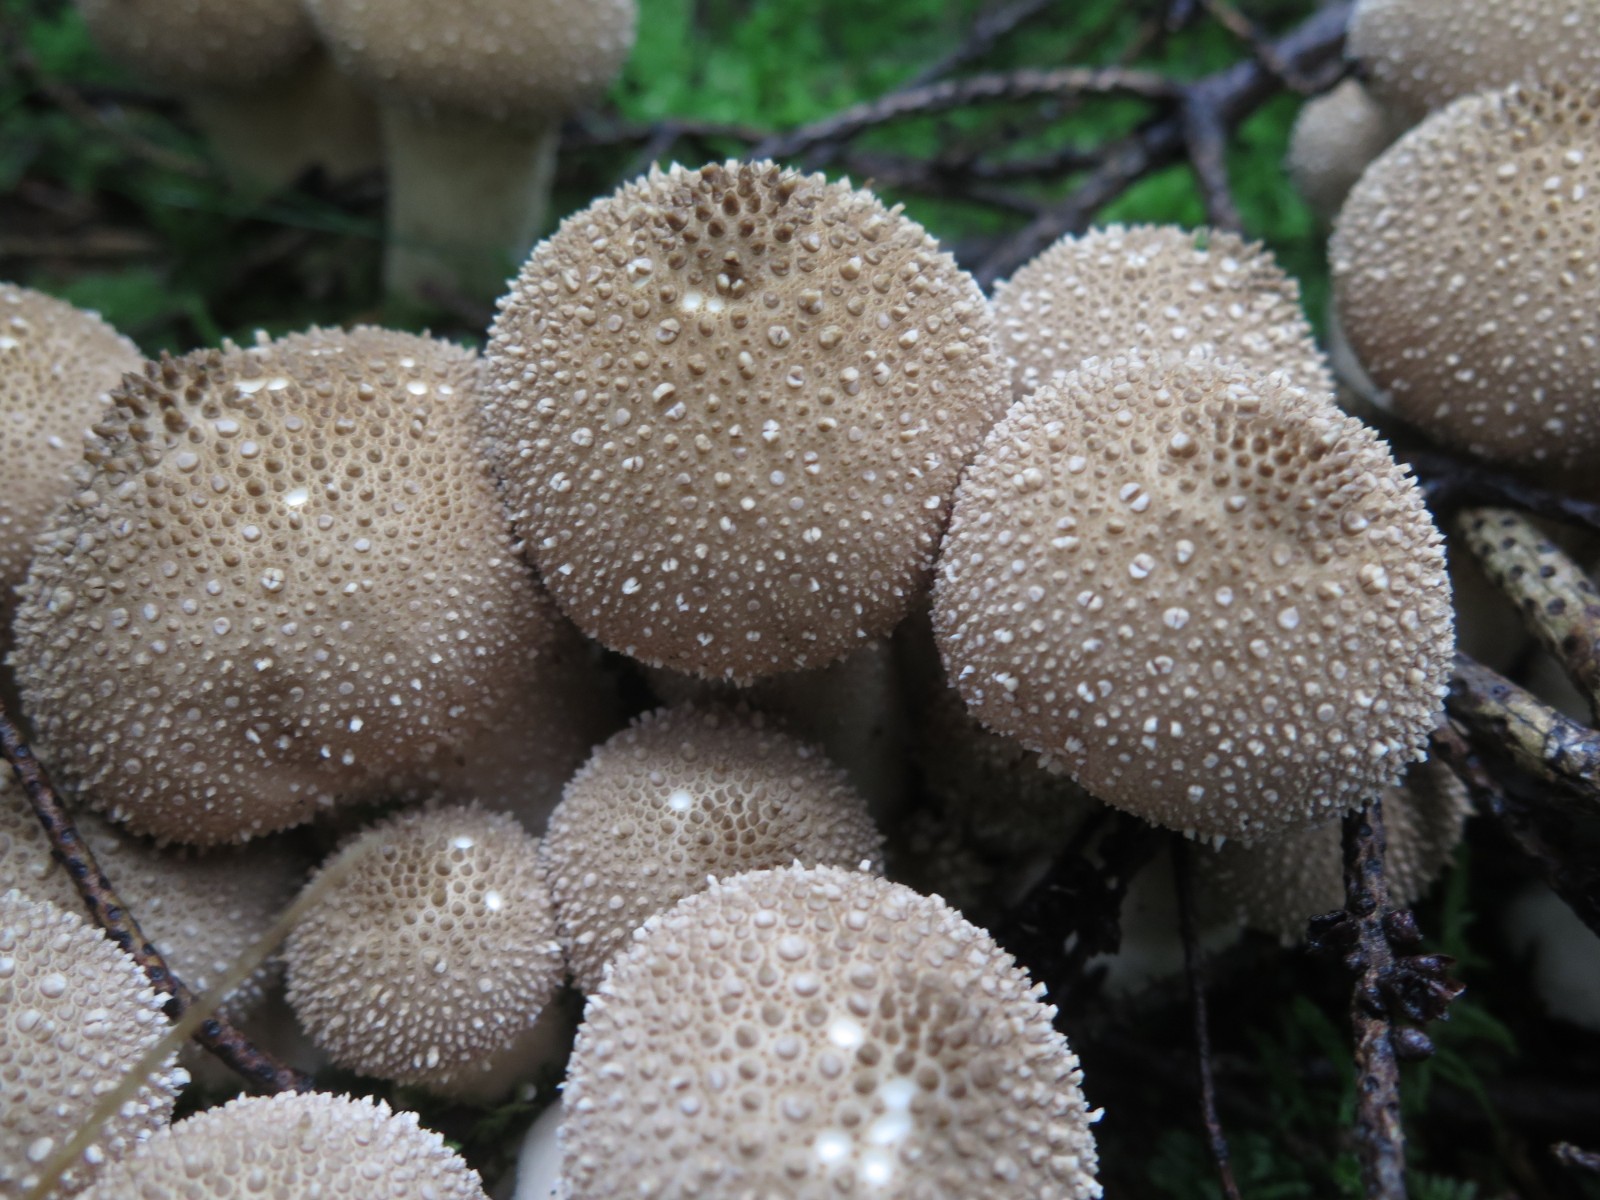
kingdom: Fungi
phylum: Basidiomycota
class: Agaricomycetes
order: Agaricales
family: Lycoperdaceae
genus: Lycoperdon
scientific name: Lycoperdon perlatum
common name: krystal-støvbold
